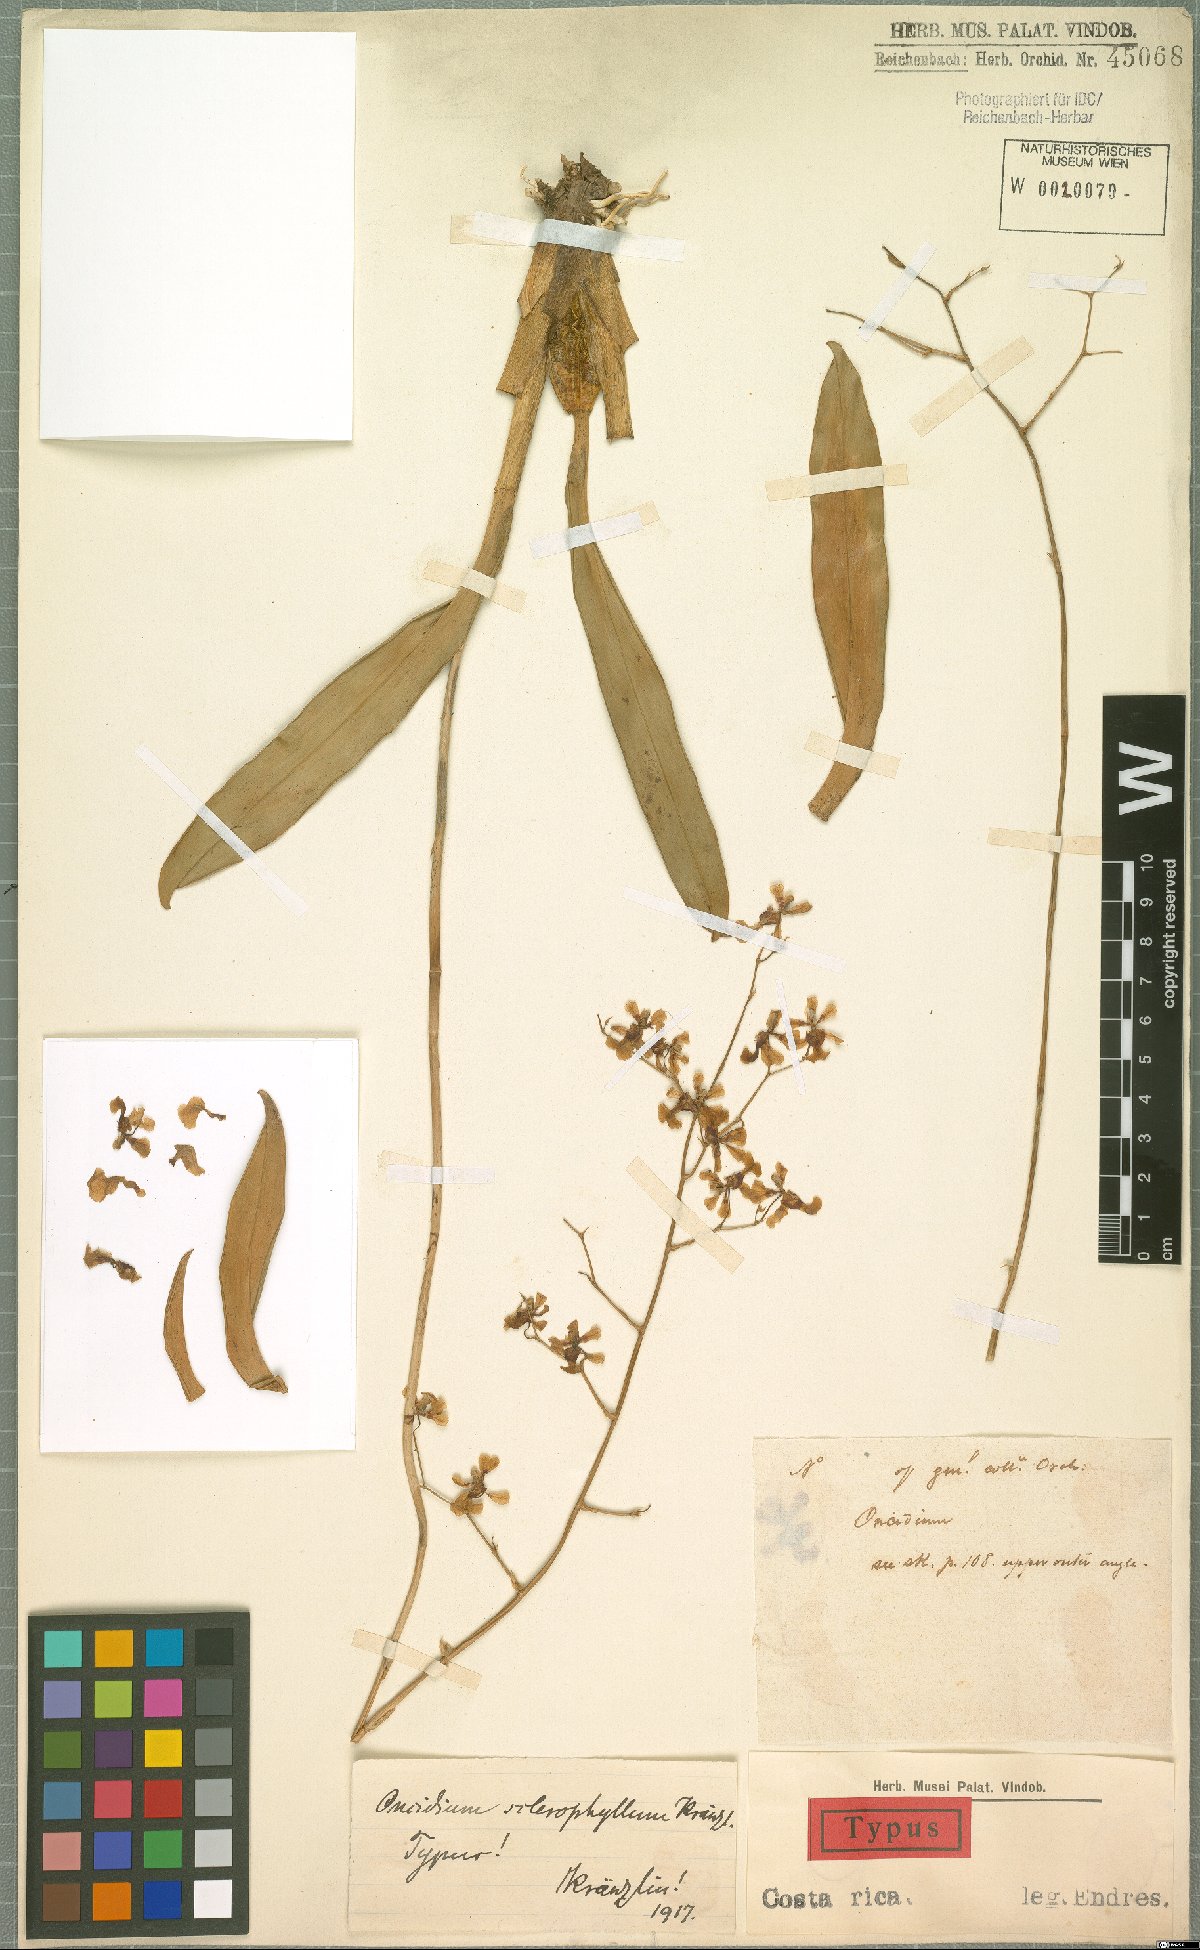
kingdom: Plantae
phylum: Tracheophyta
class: Liliopsida
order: Asparagales
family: Orchidaceae
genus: Oncidium
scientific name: Oncidium nebulosum
